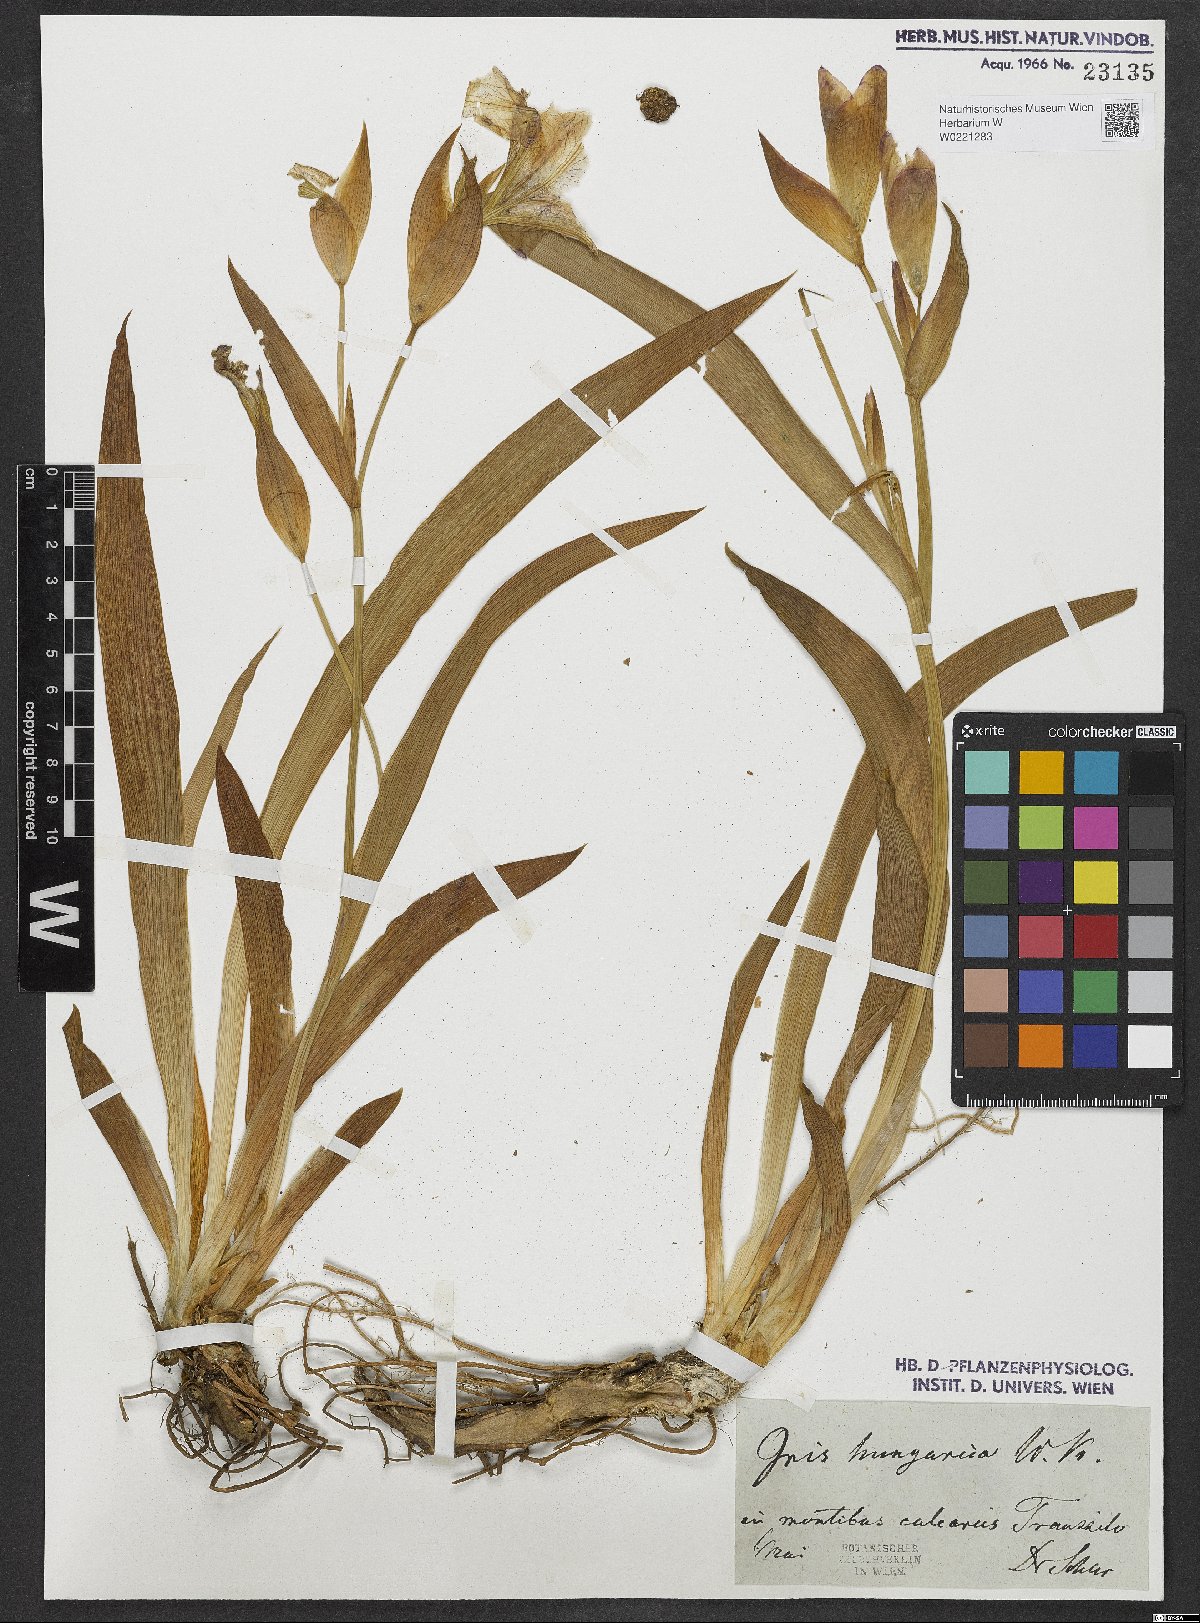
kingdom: Plantae
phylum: Tracheophyta
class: Liliopsida
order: Asparagales
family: Iridaceae
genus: Iris
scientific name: Iris aphylla
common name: Stool iris
